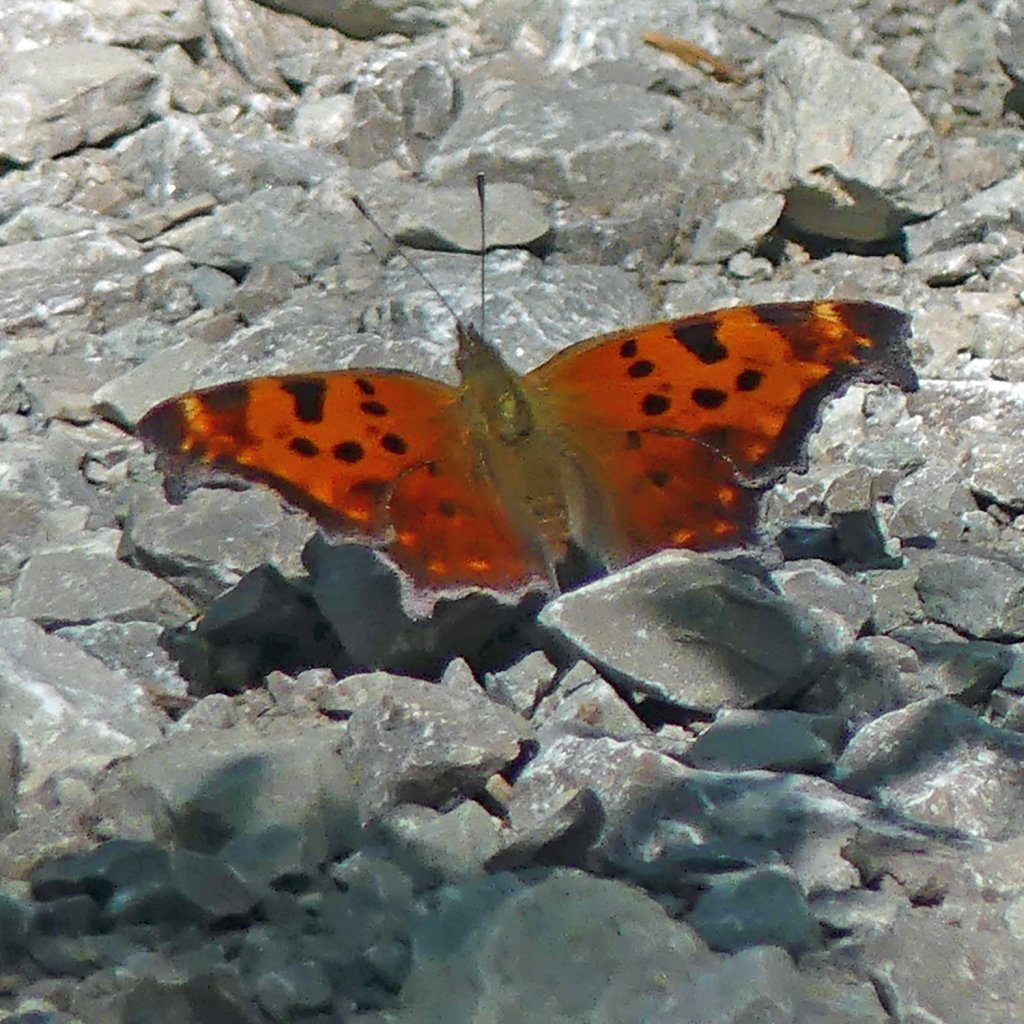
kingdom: Animalia
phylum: Arthropoda
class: Insecta
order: Lepidoptera
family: Nymphalidae
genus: Polygonia
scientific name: Polygonia comma
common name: Eastern Comma
